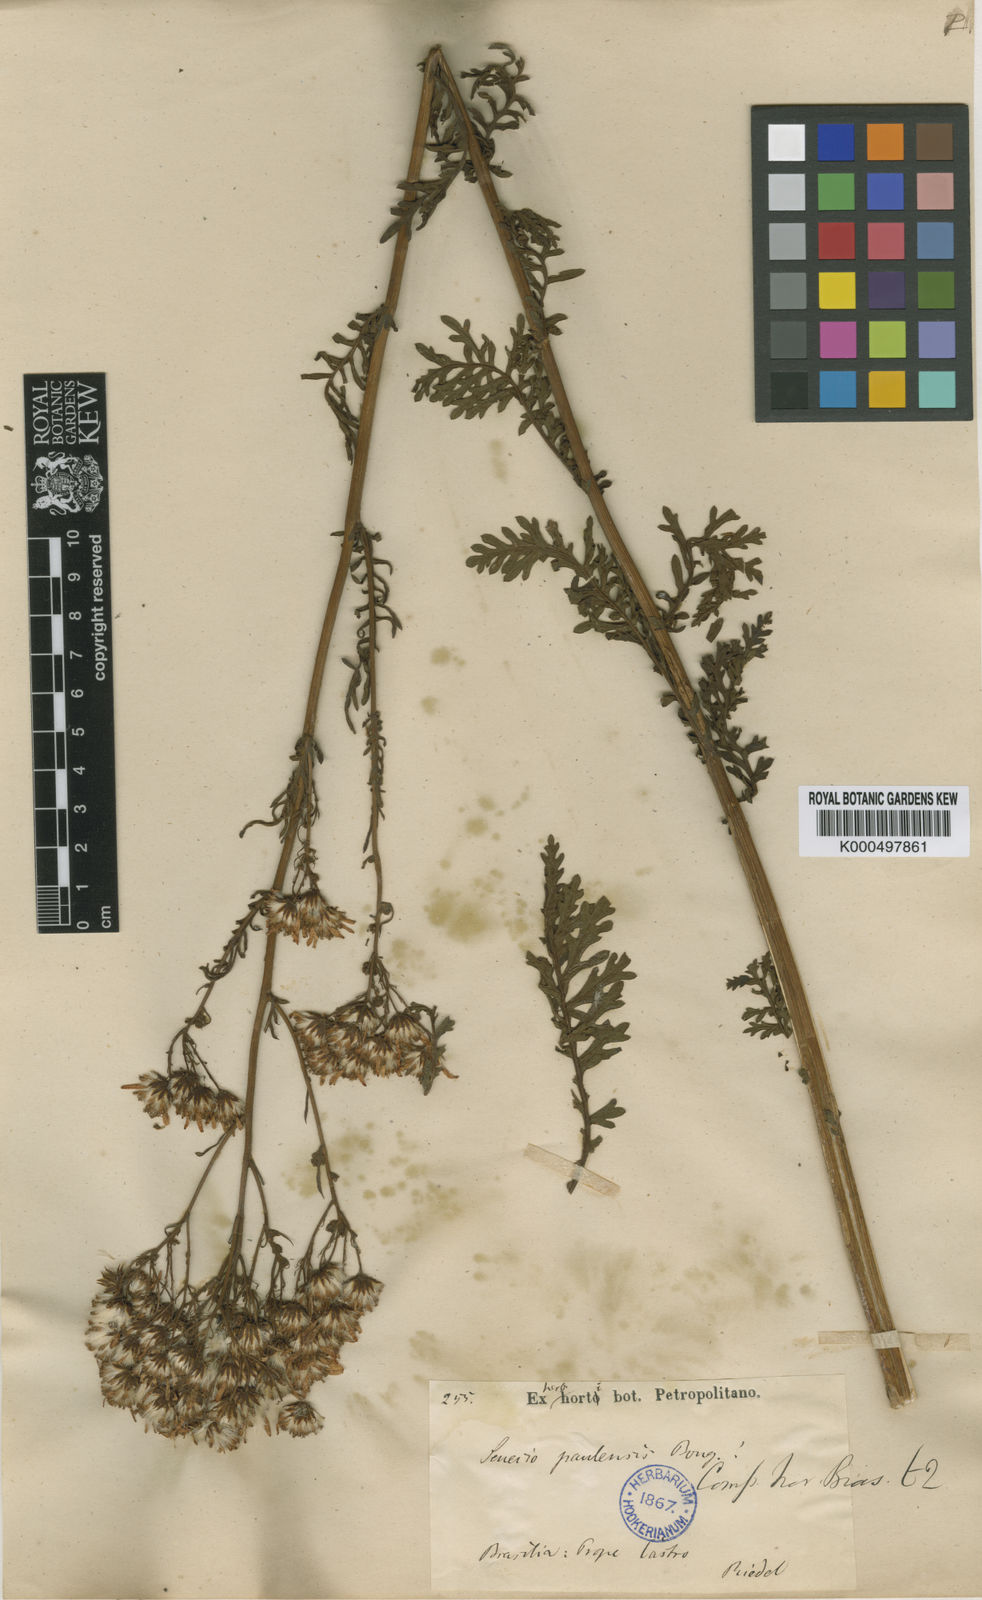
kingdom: Plantae
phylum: Tracheophyta
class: Magnoliopsida
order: Asterales
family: Asteraceae
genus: Senecio
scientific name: Senecio paulensis
